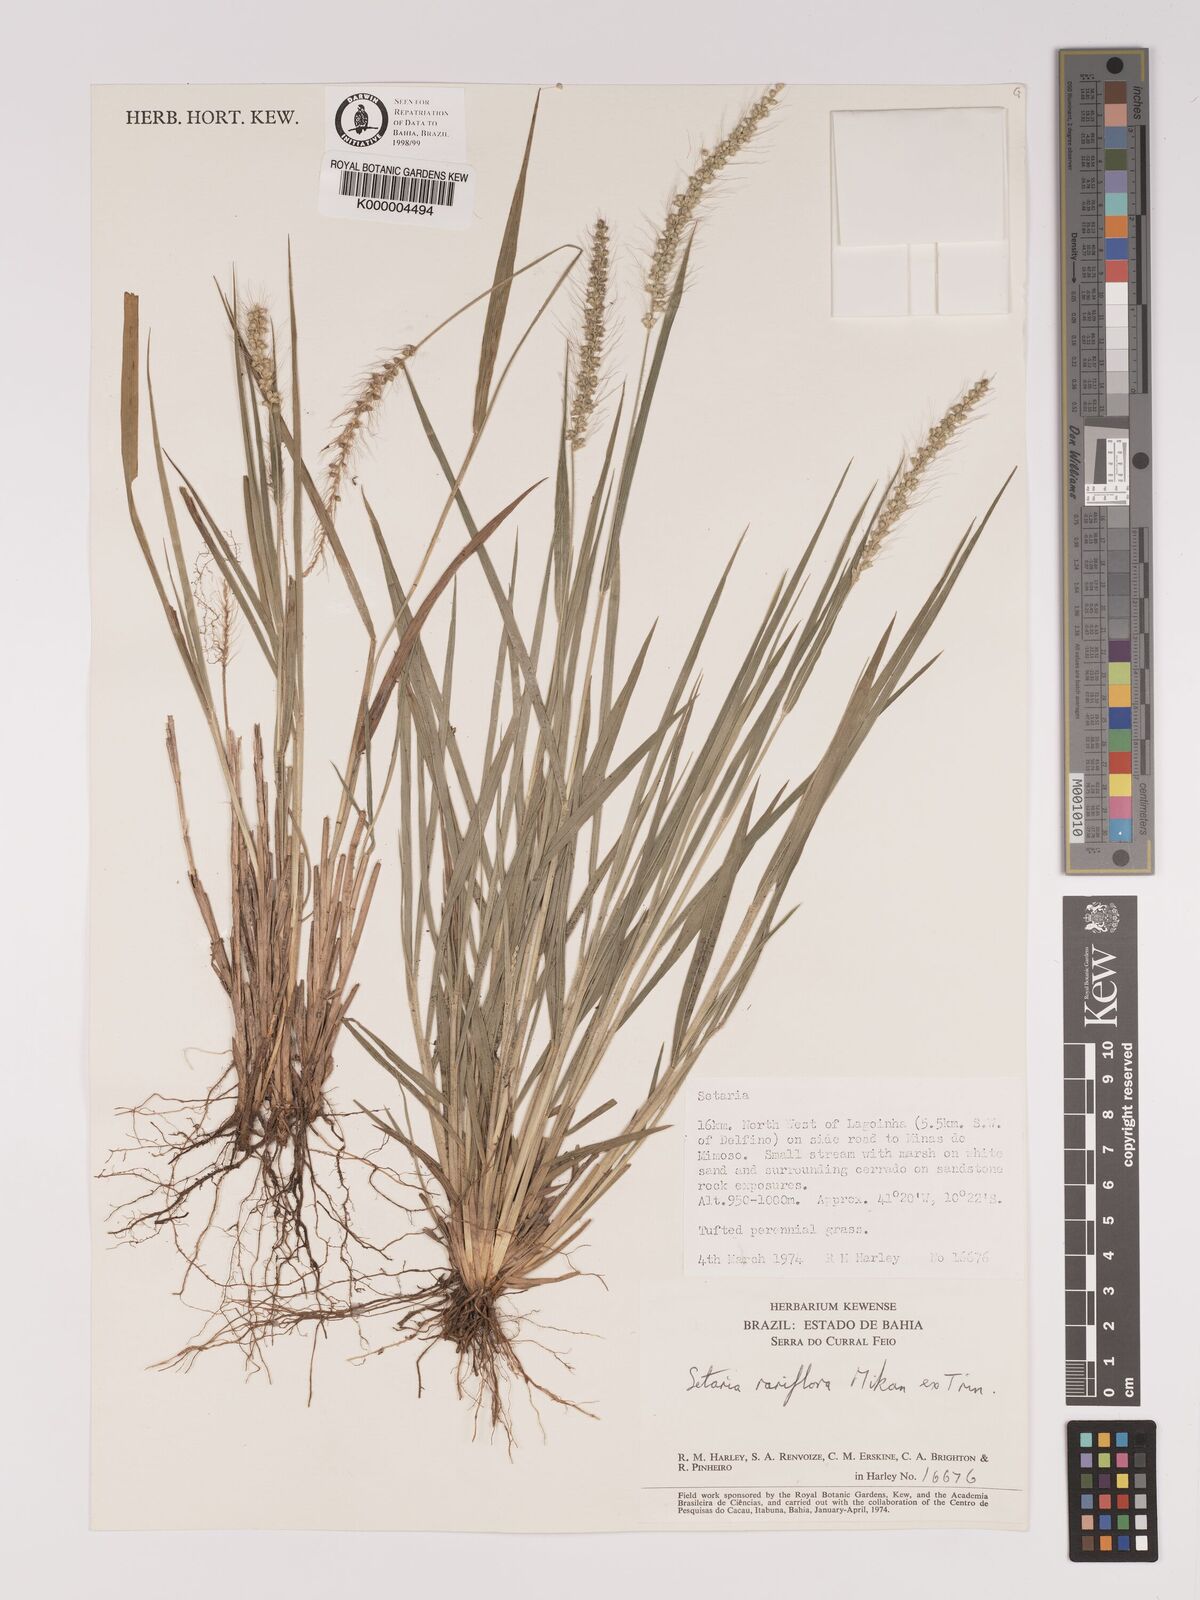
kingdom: Plantae
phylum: Tracheophyta
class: Liliopsida
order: Poales
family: Poaceae
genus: Setaria
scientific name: Setaria tenax
